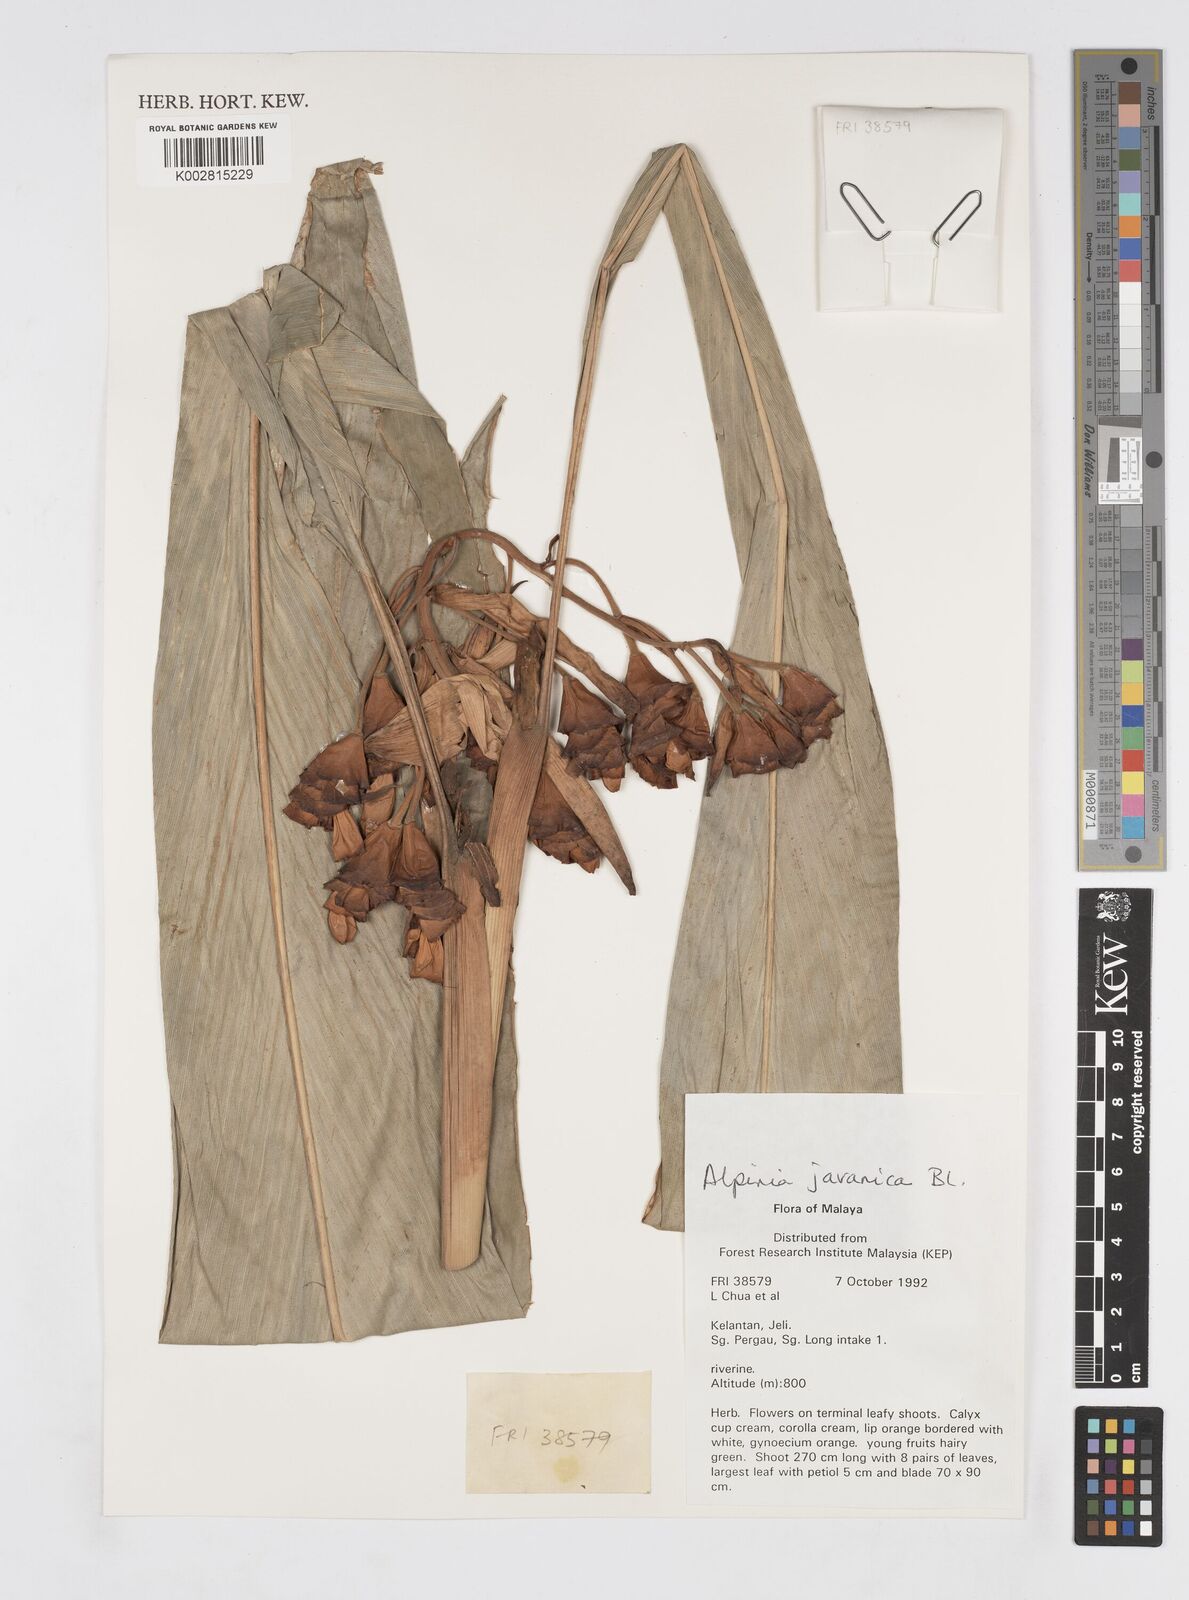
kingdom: Plantae
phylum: Tracheophyta
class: Liliopsida
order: Zingiberales
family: Zingiberaceae
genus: Alpinia
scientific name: Alpinia javanica
